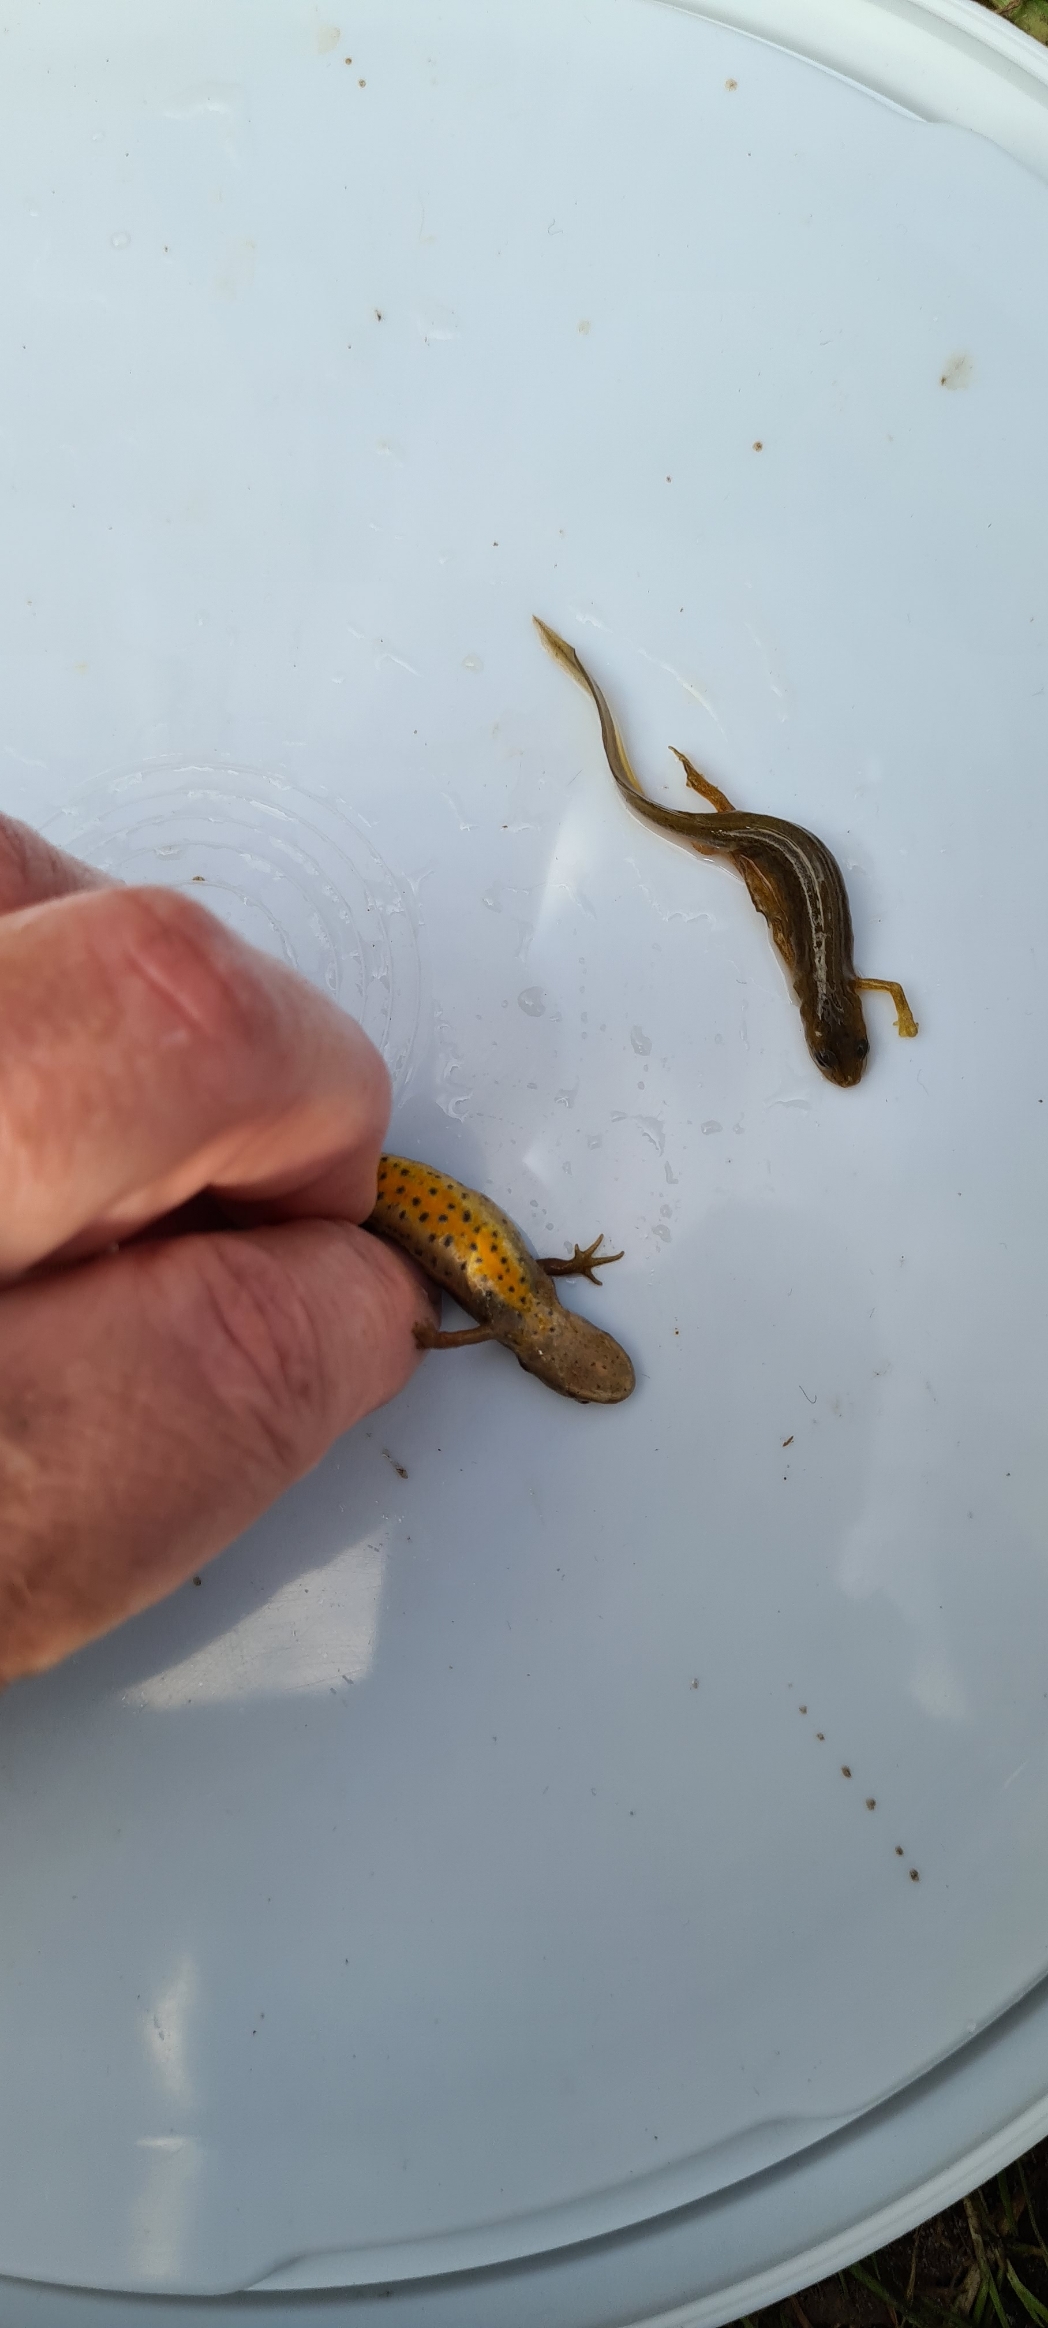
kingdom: Animalia
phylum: Chordata
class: Amphibia
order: Caudata
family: Salamandridae
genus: Lissotriton
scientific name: Lissotriton vulgaris
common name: Lille vandsalamander
